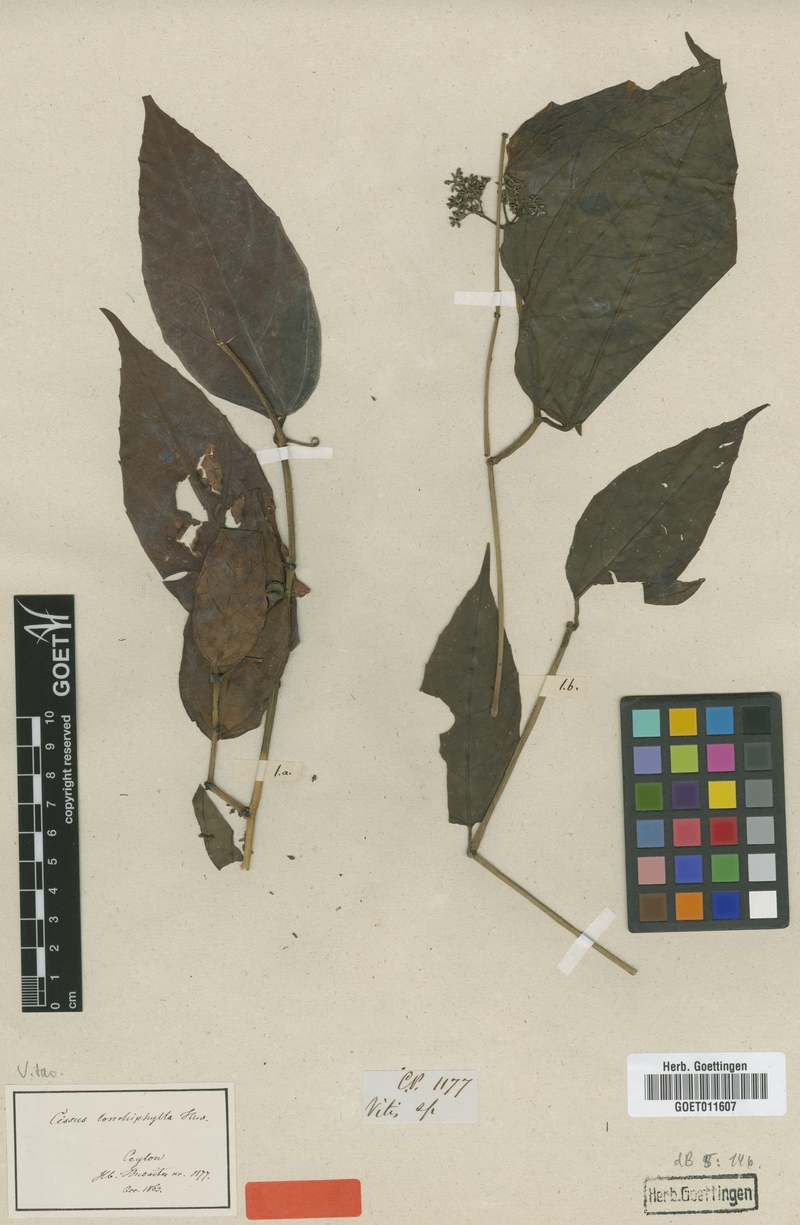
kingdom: Plantae
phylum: Tracheophyta
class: Magnoliopsida
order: Vitales
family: Vitaceae
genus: Cissus
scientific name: Cissus lonchiphylla
